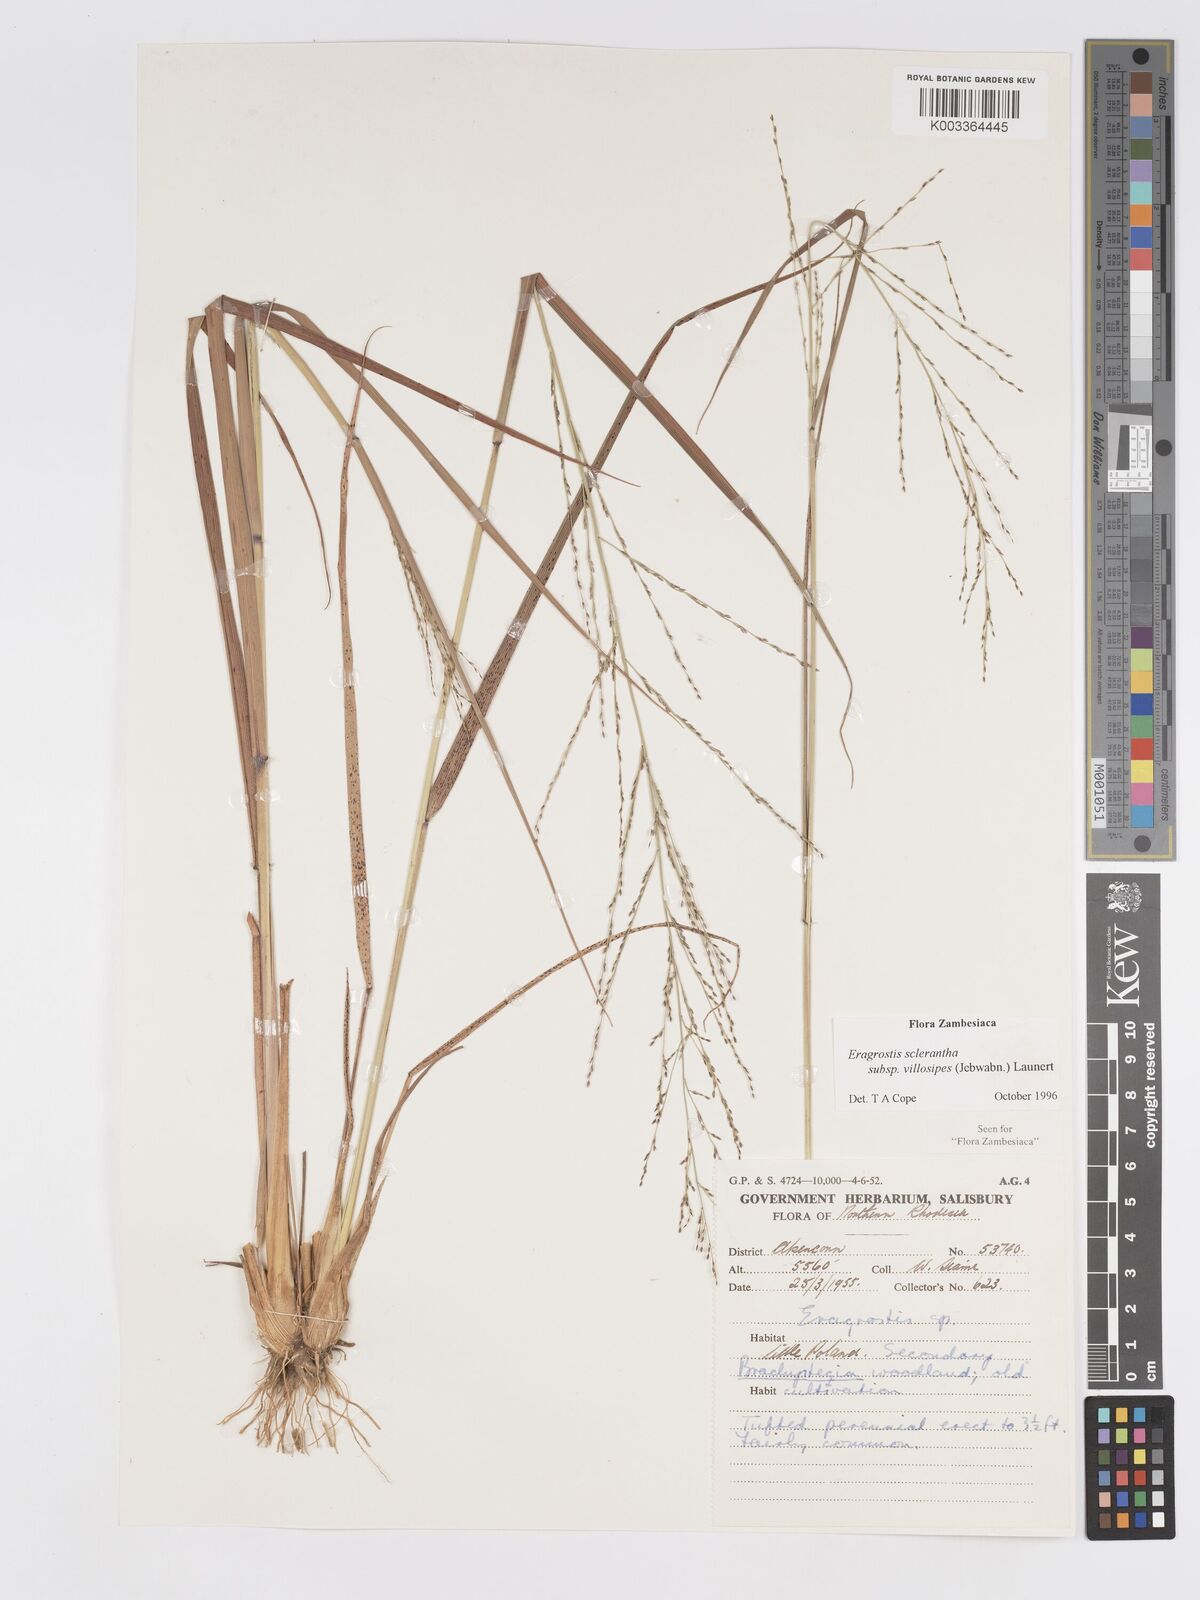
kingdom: Plantae
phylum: Tracheophyta
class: Liliopsida
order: Poales
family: Poaceae
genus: Eragrostis
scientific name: Eragrostis sclerantha
